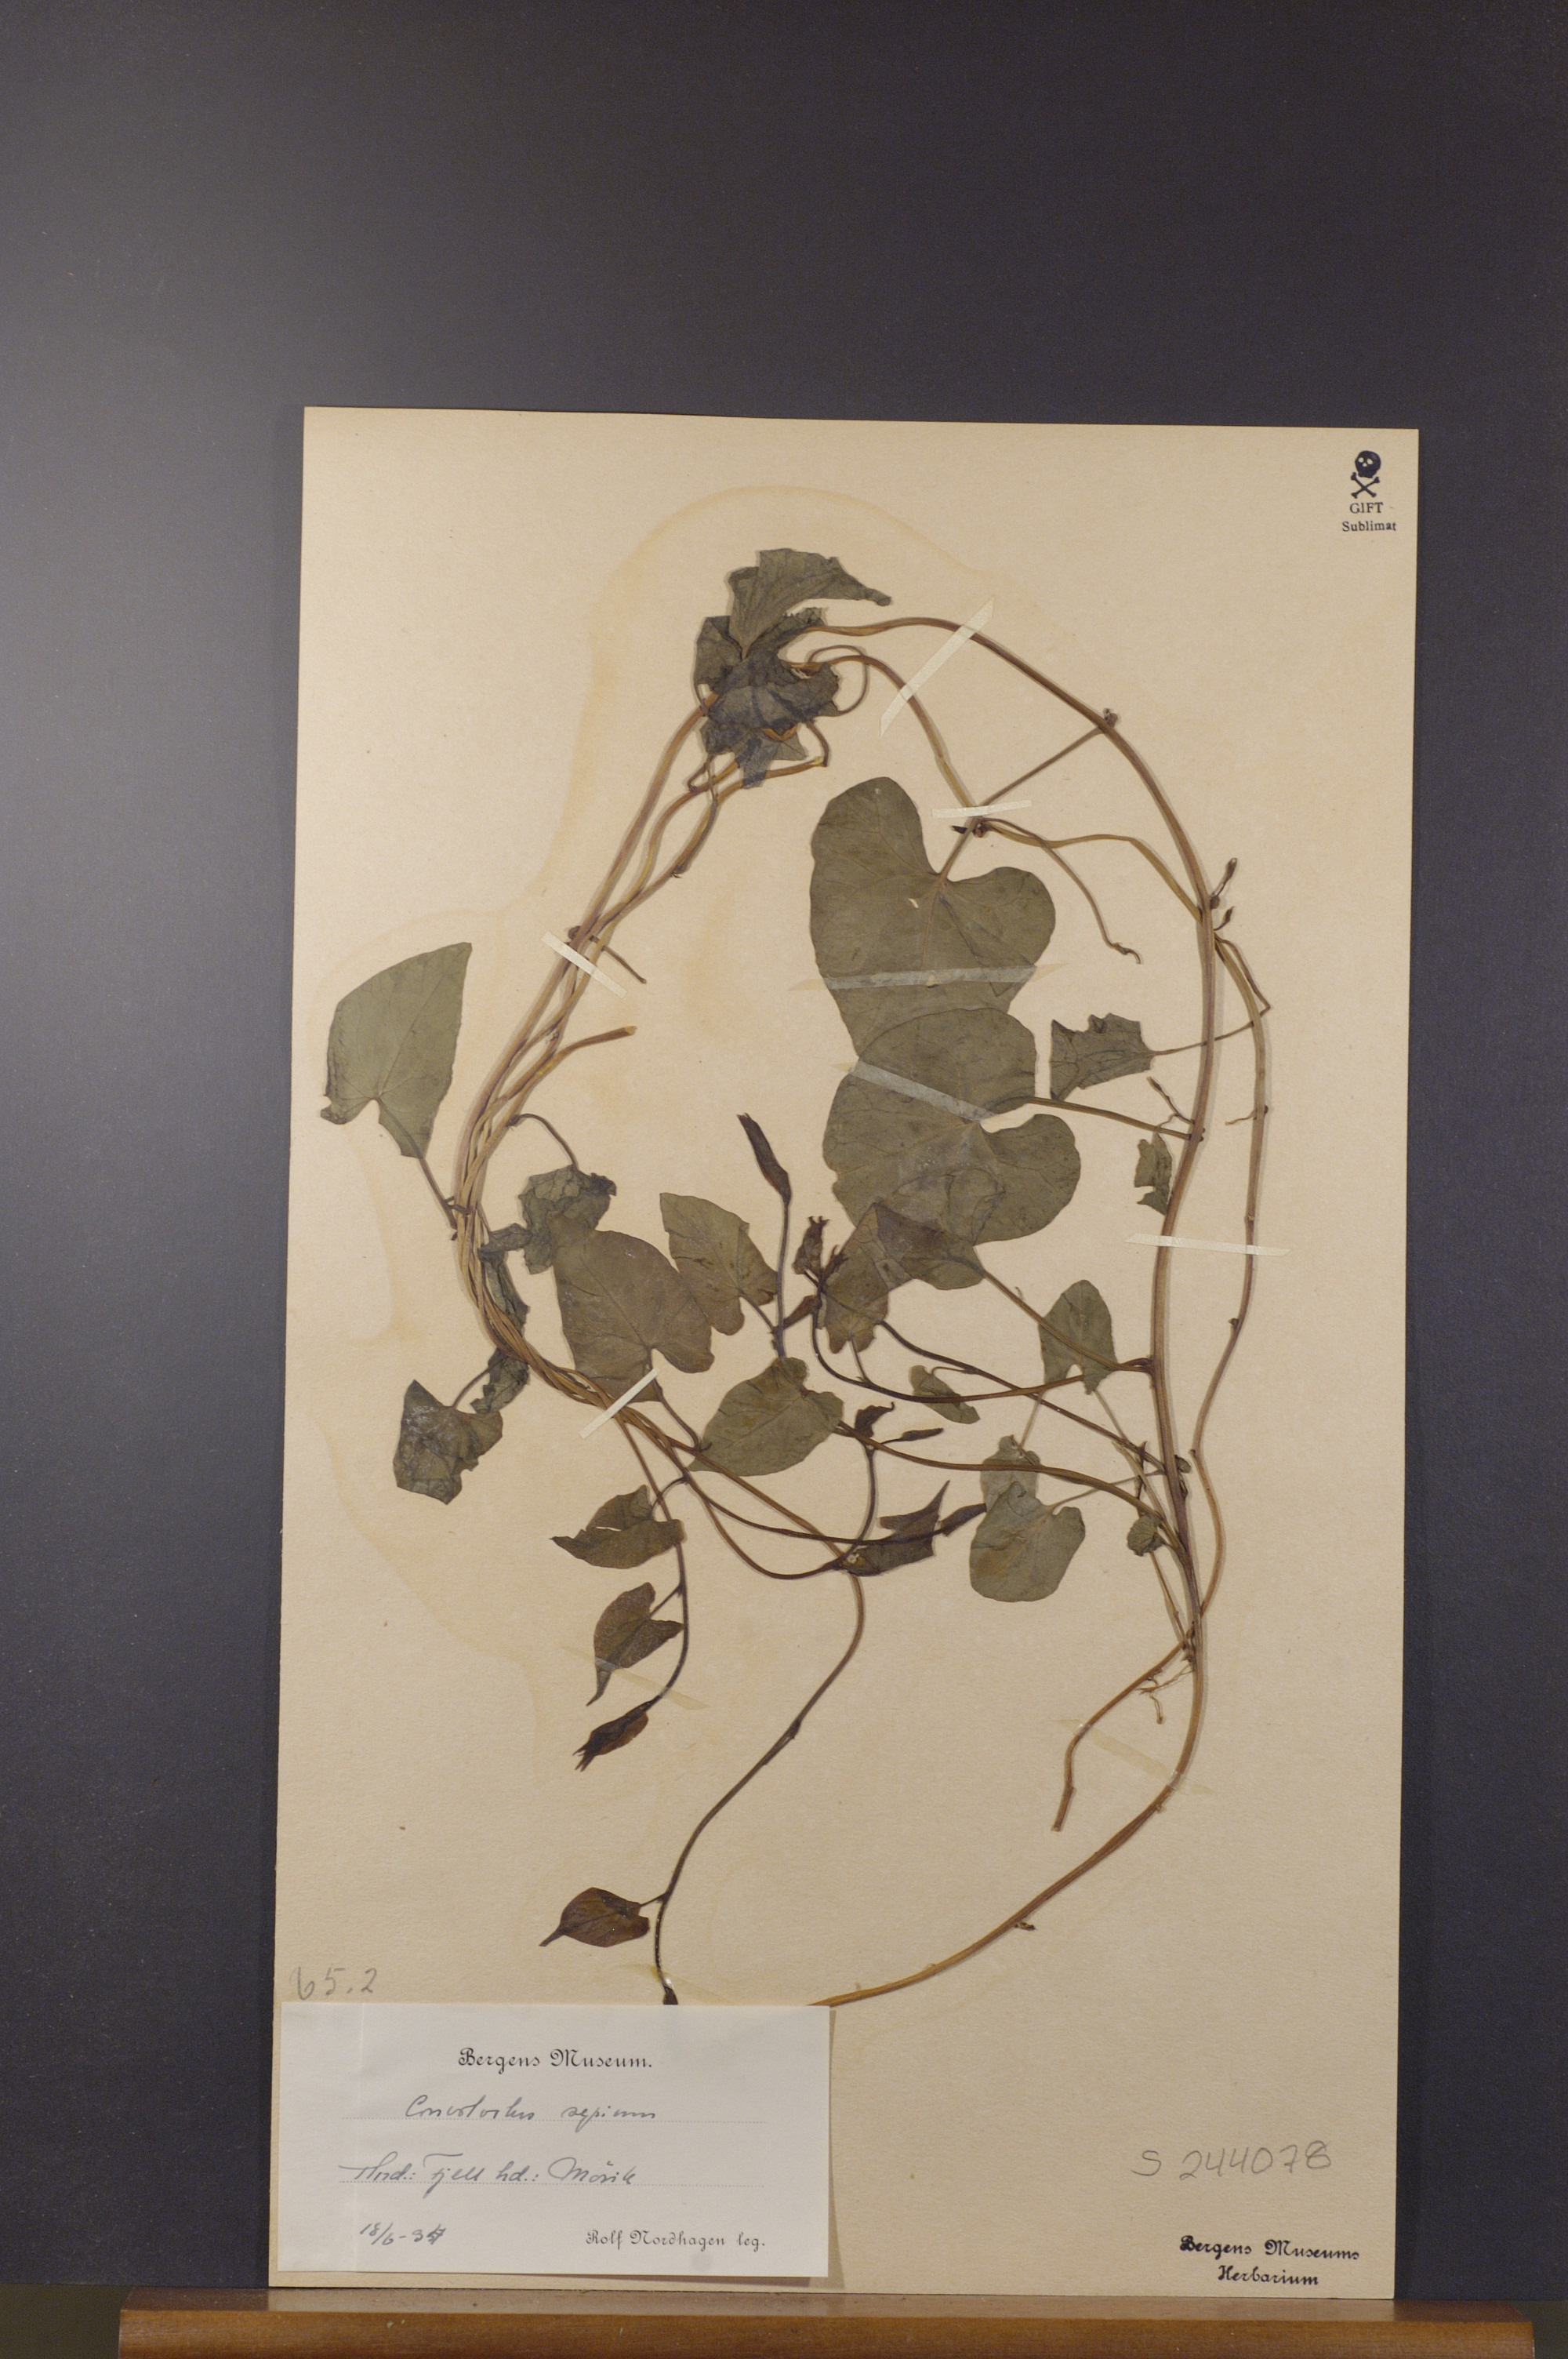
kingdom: Plantae
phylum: Tracheophyta
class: Magnoliopsida
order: Solanales
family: Convolvulaceae
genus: Calystegia
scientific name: Calystegia sepium
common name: Hedge bindweed
